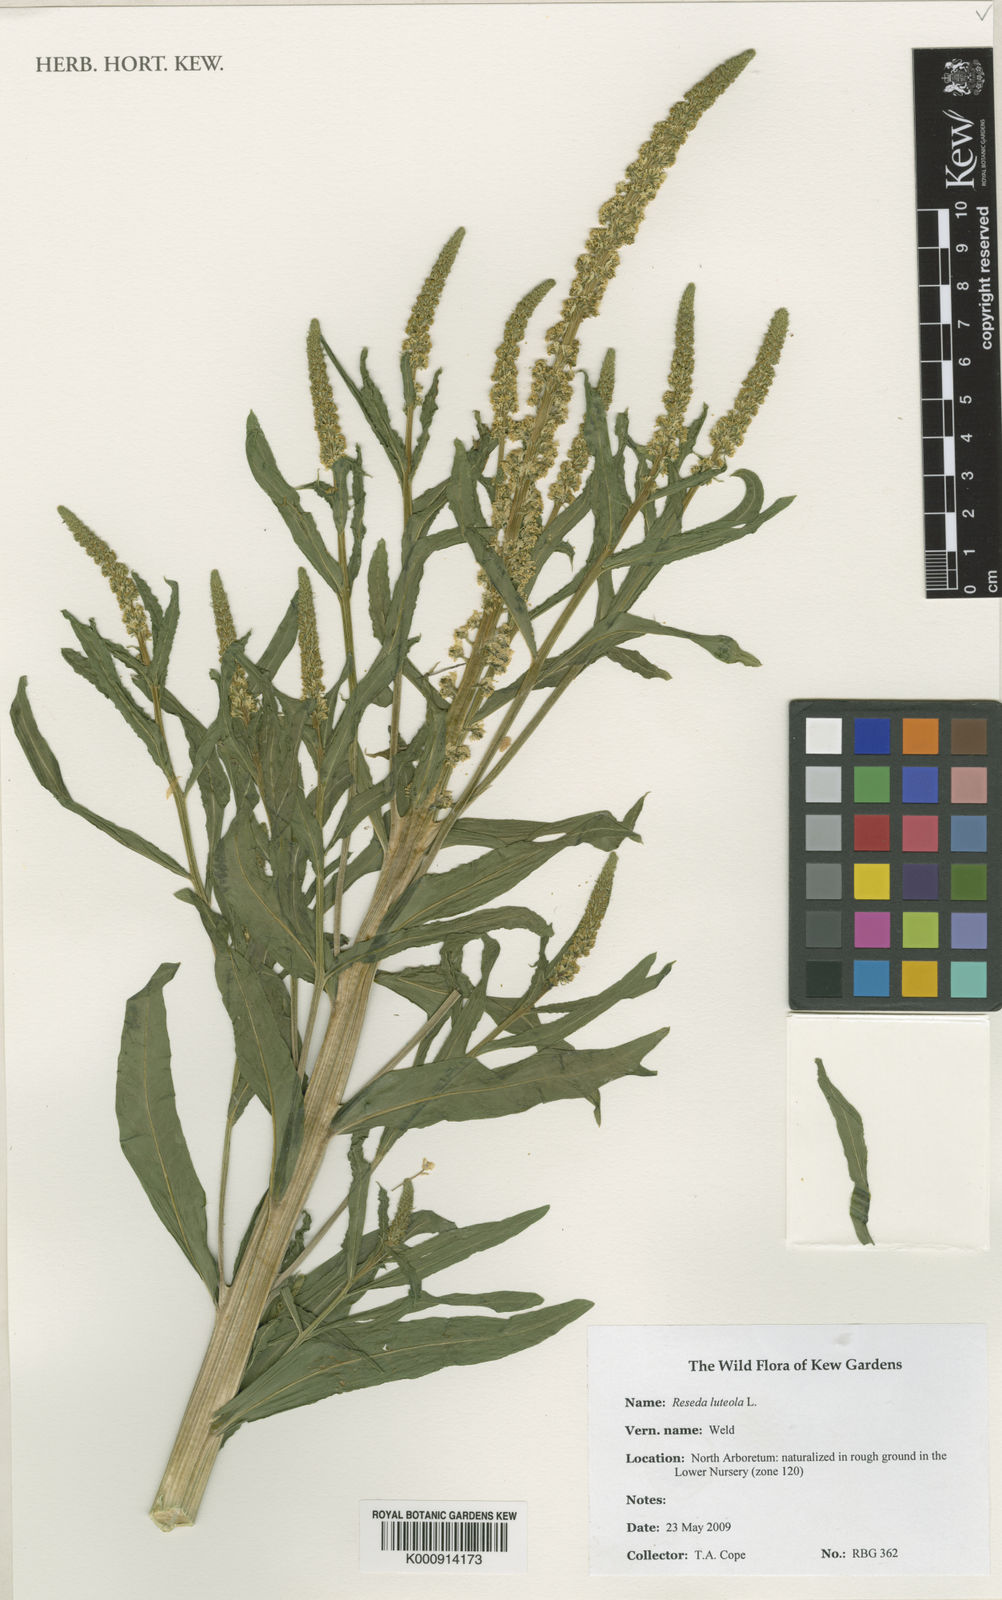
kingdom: Plantae
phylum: Tracheophyta
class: Magnoliopsida
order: Brassicales
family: Resedaceae
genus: Reseda
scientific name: Reseda luteola
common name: Weld
